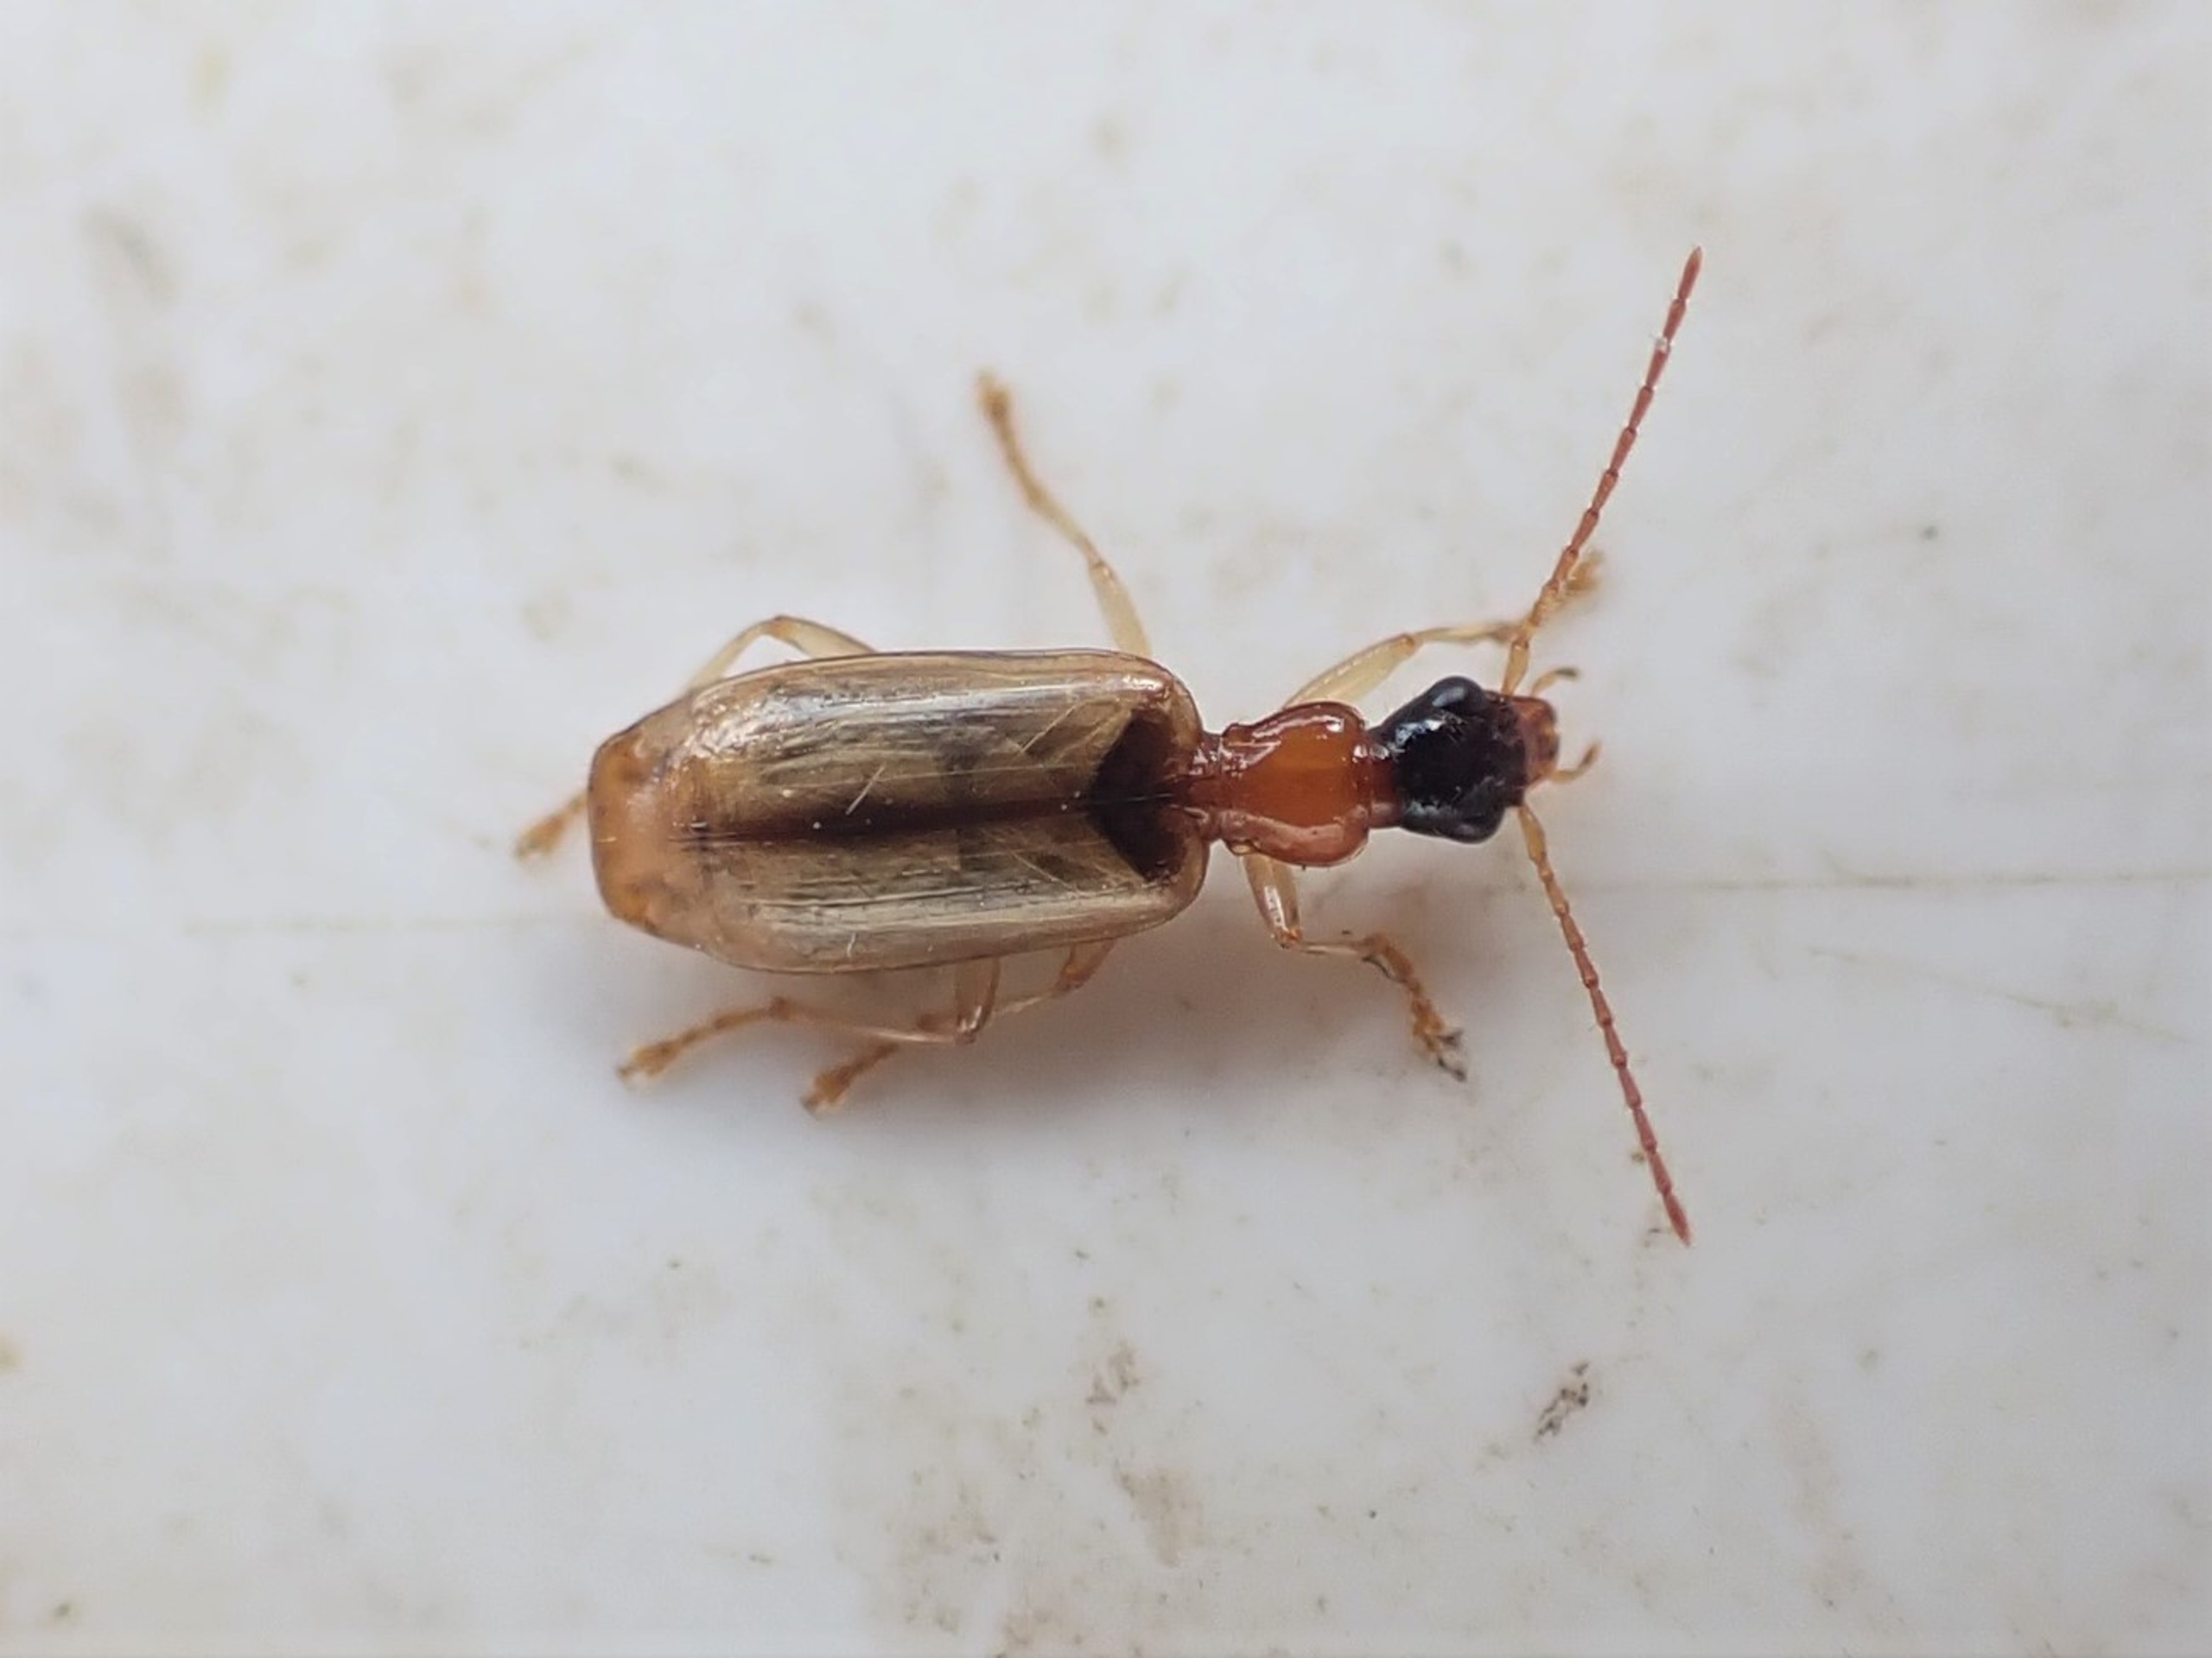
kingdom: Animalia
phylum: Arthropoda
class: Insecta
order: Coleoptera
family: Carabidae
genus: Demetrias
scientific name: Demetrias atricapillus
